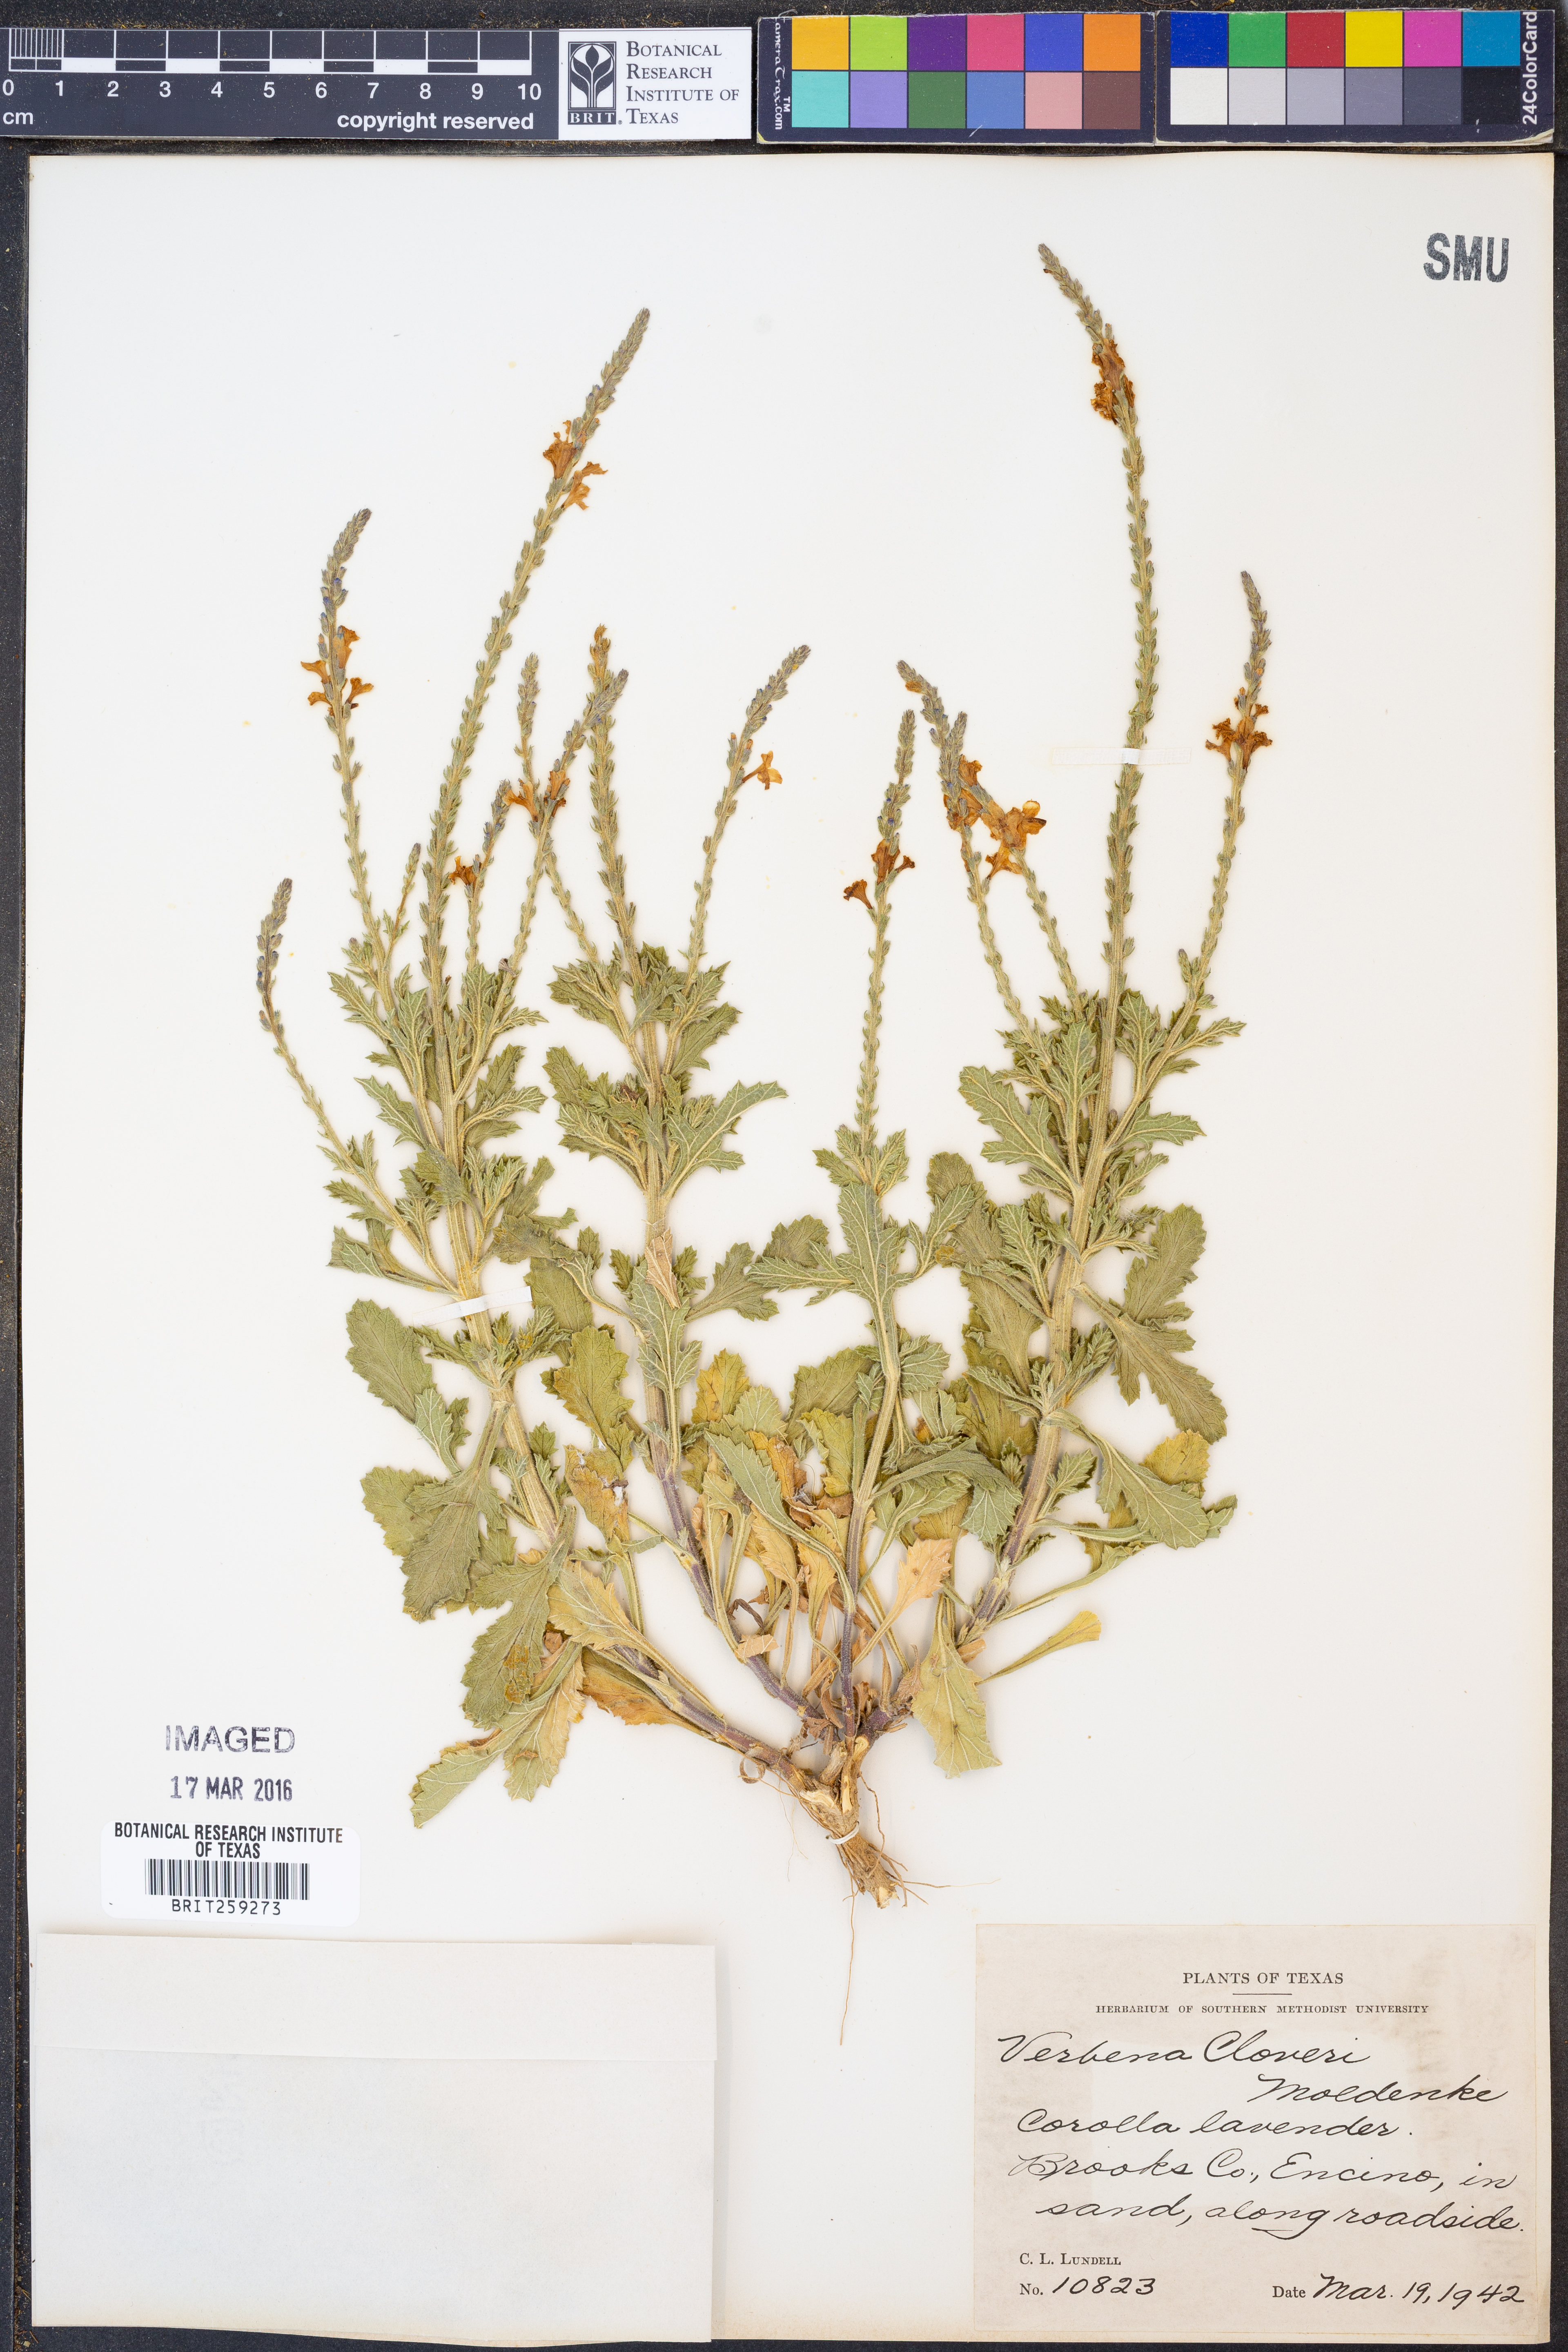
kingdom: Plantae
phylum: Tracheophyta
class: Magnoliopsida
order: Lamiales
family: Verbenaceae
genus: Verbena
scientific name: Verbena cloveri
